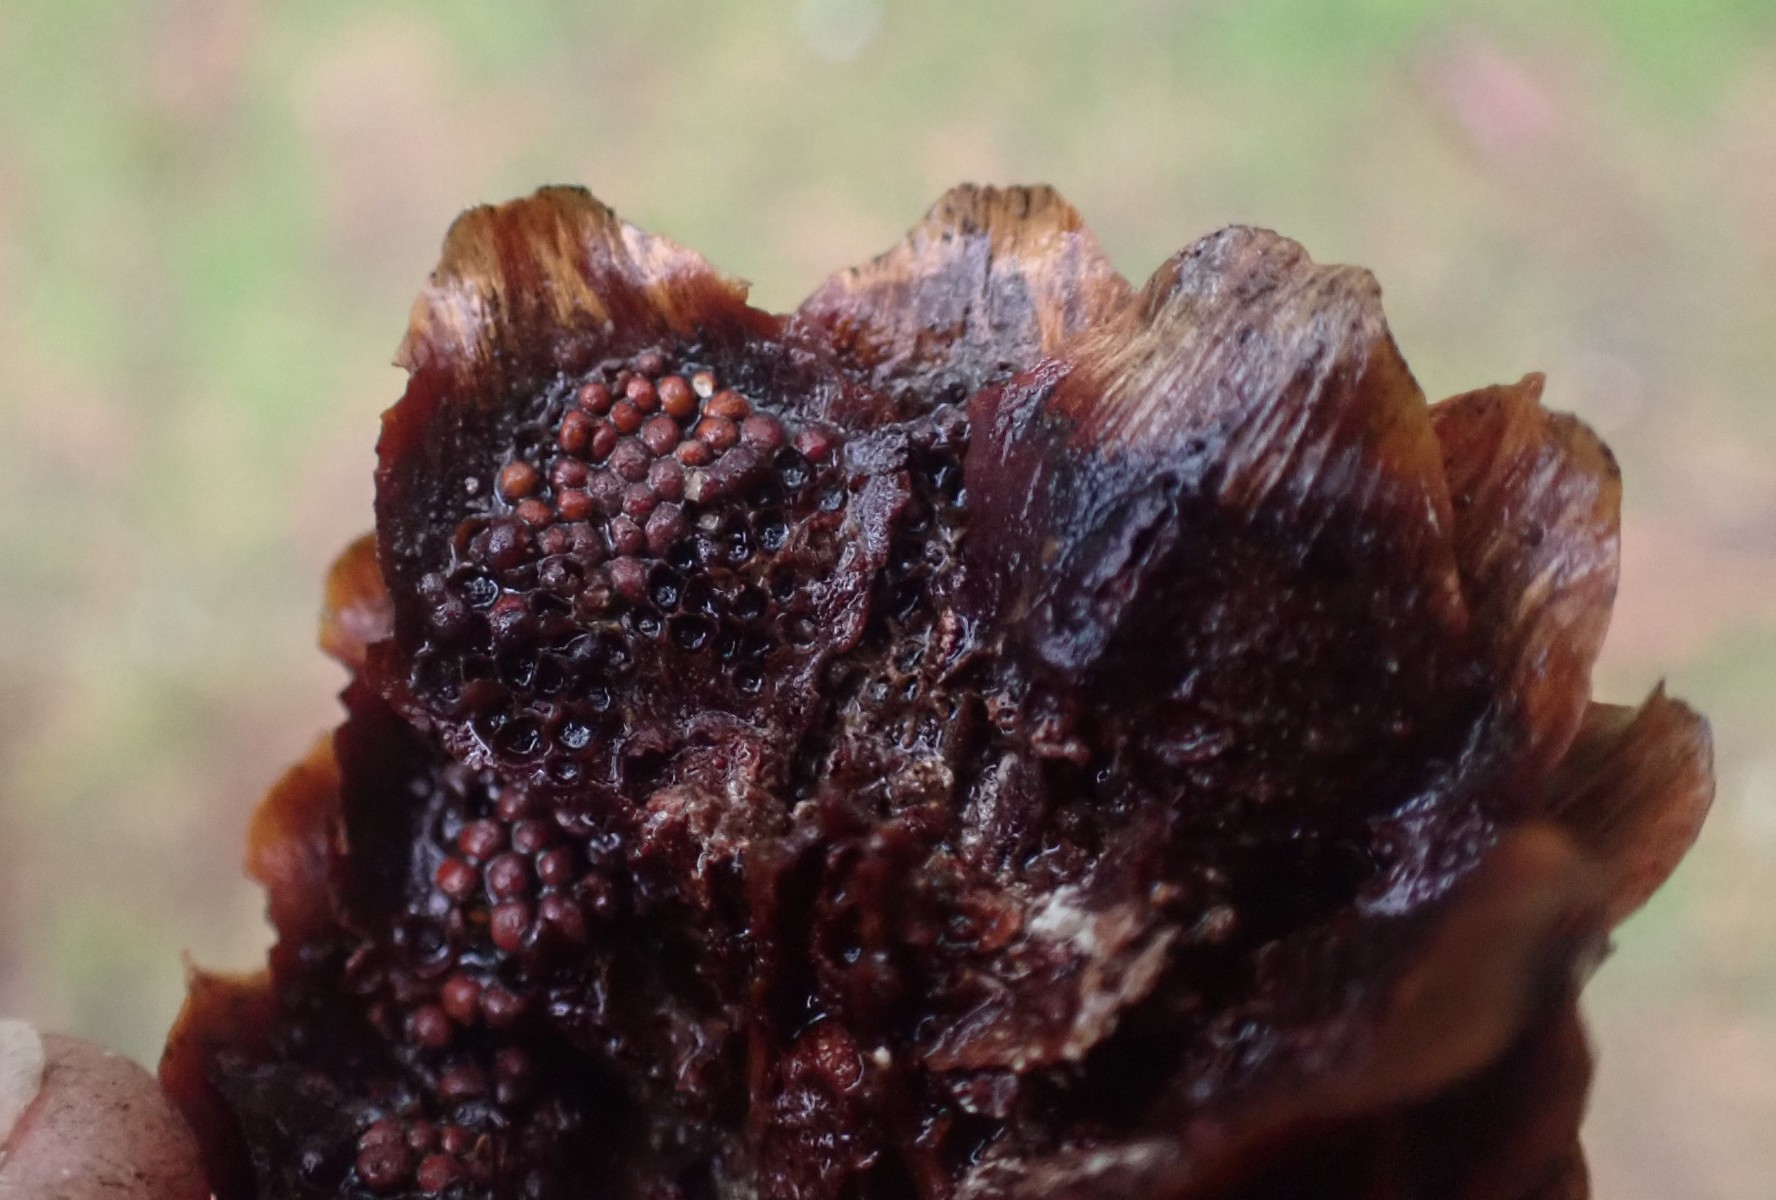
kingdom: Fungi
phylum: Basidiomycota
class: Pucciniomycetes
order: Pucciniales
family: Pucciniastraceae
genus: Thekopsora
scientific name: Thekopsora areolata
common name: grankogle-nålerust
